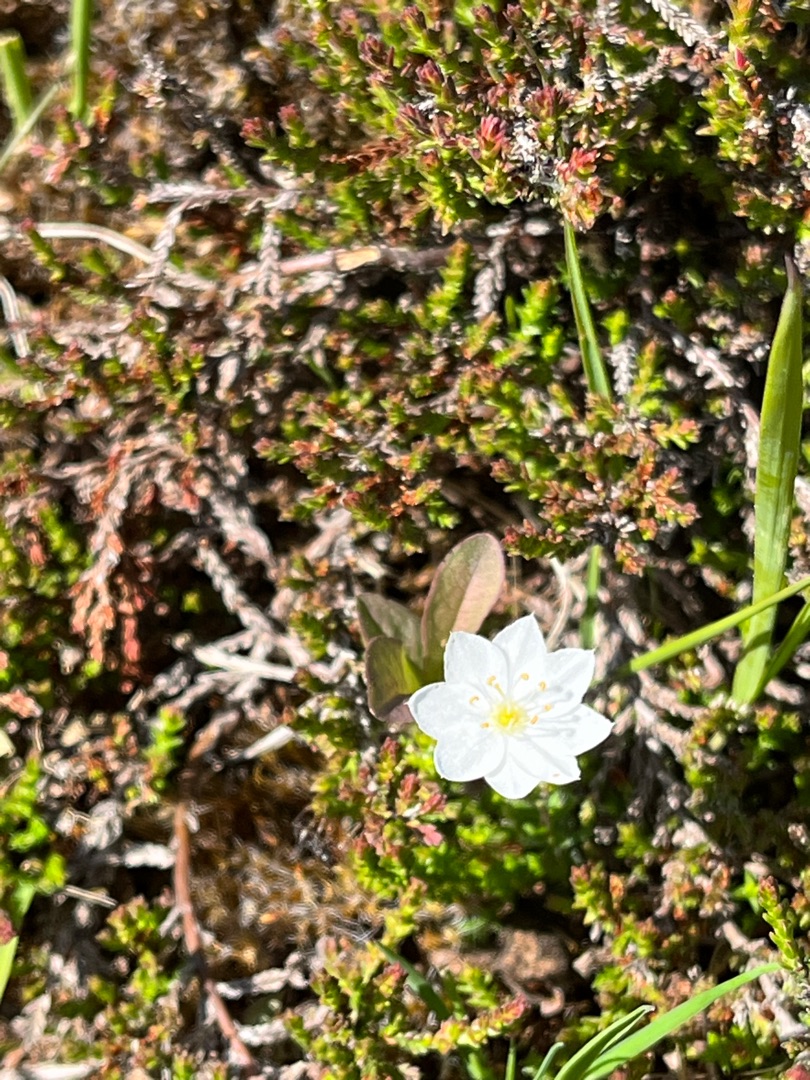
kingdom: Plantae
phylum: Tracheophyta
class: Magnoliopsida
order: Ericales
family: Primulaceae
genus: Lysimachia
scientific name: Lysimachia europaea
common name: Skovstjerne
